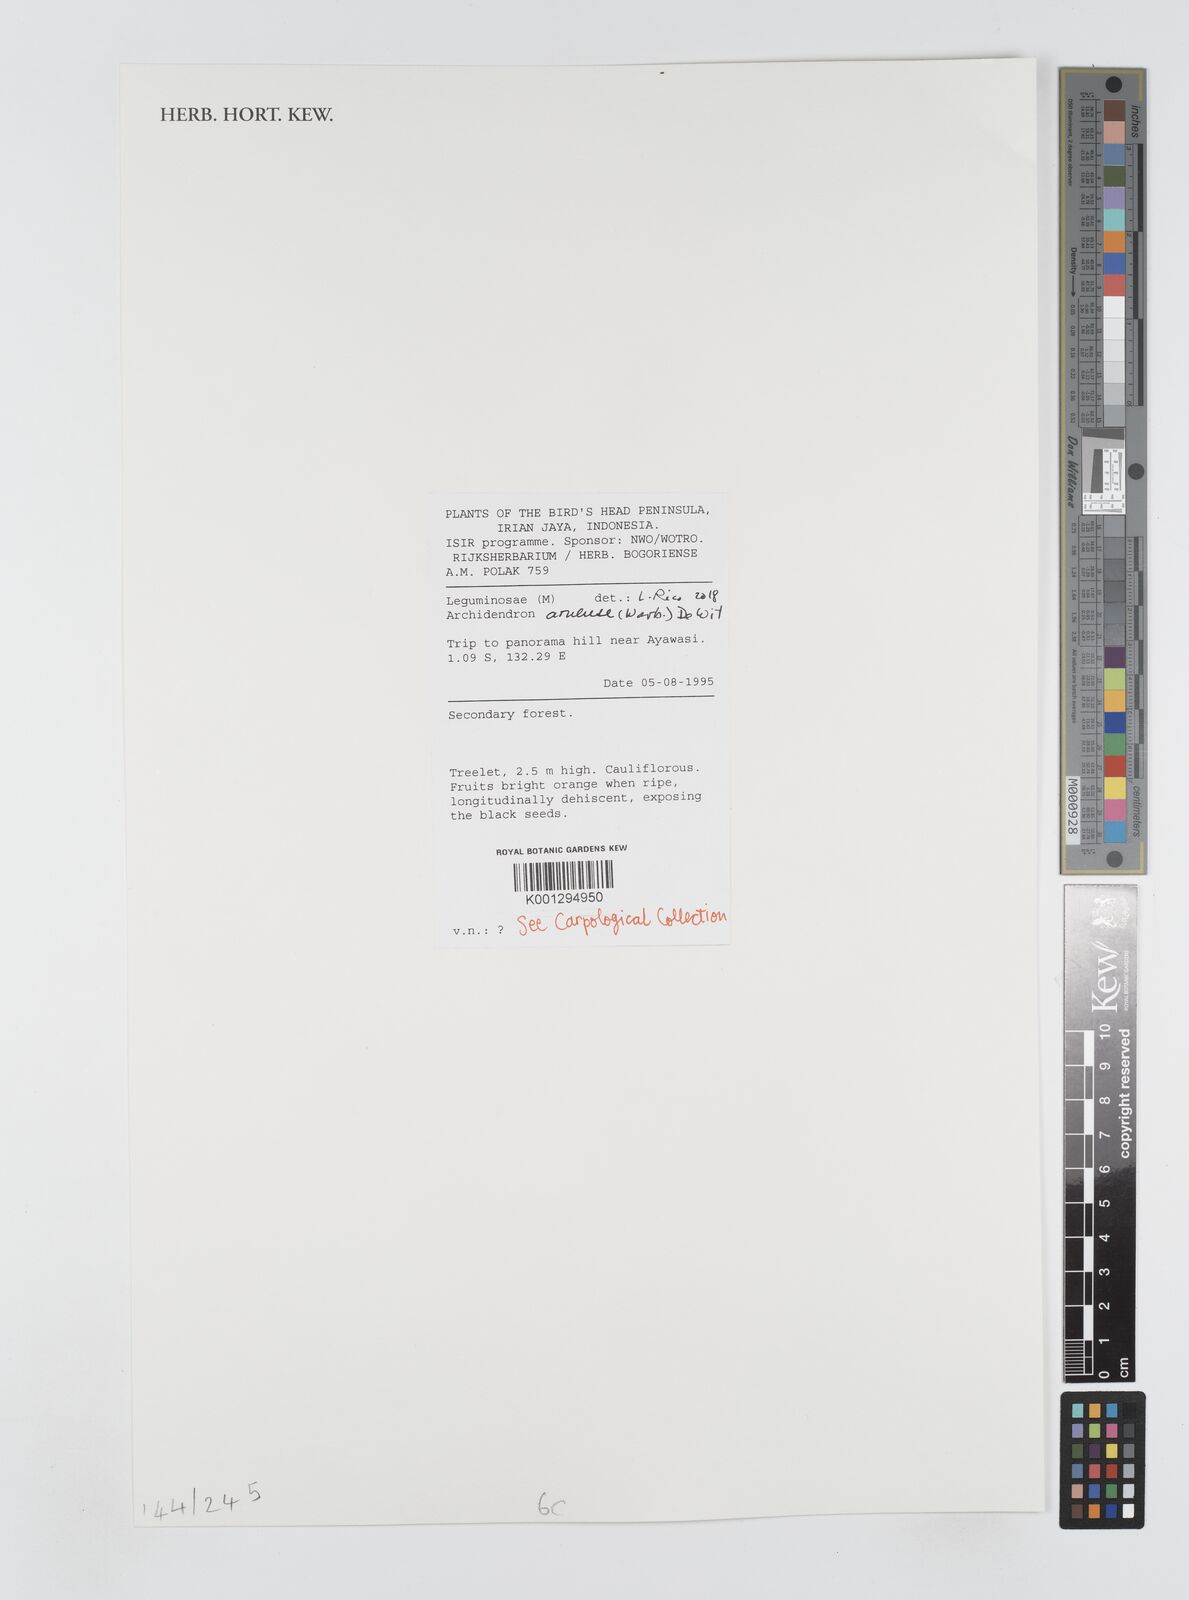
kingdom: Plantae
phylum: Tracheophyta
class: Magnoliopsida
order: Fabales
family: Fabaceae
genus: Archidendron
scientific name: Archidendron aruense
